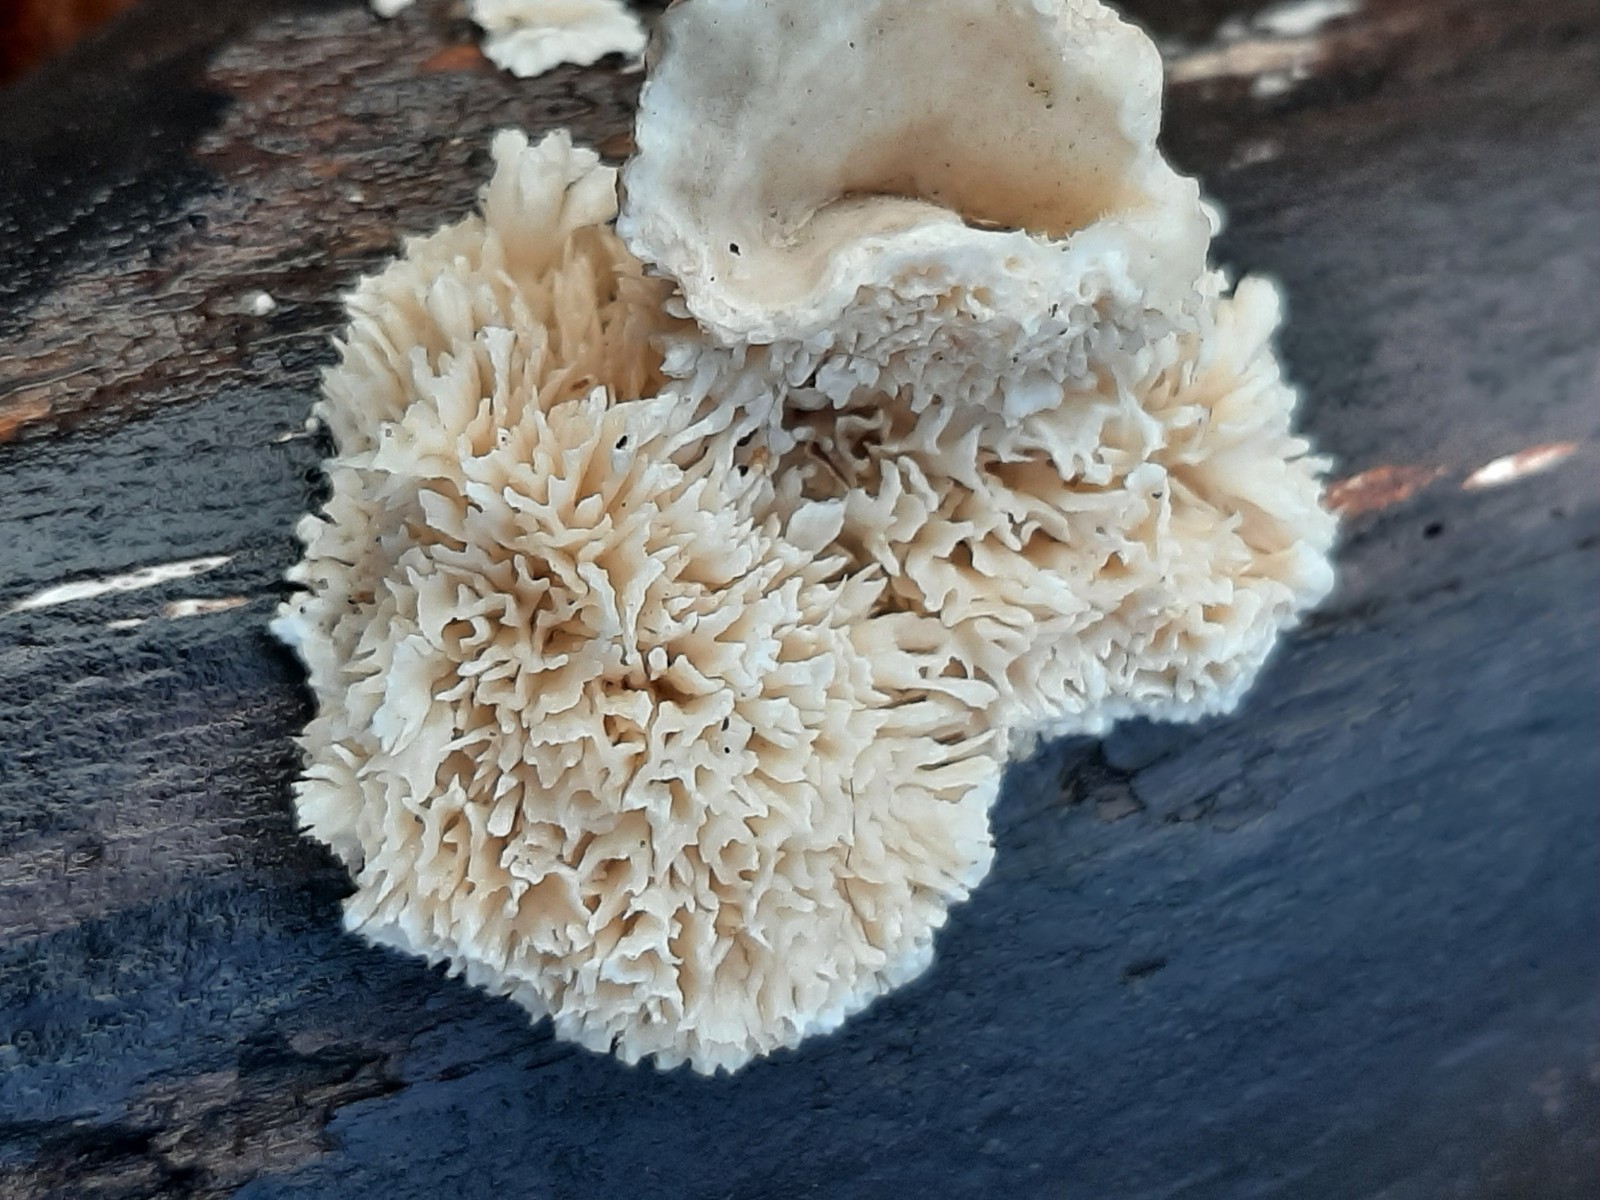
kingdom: Fungi
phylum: Basidiomycota
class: Agaricomycetes
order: Polyporales
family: Polyporaceae
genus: Lenzites
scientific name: Lenzites betulinus
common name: birke-læderporesvamp
